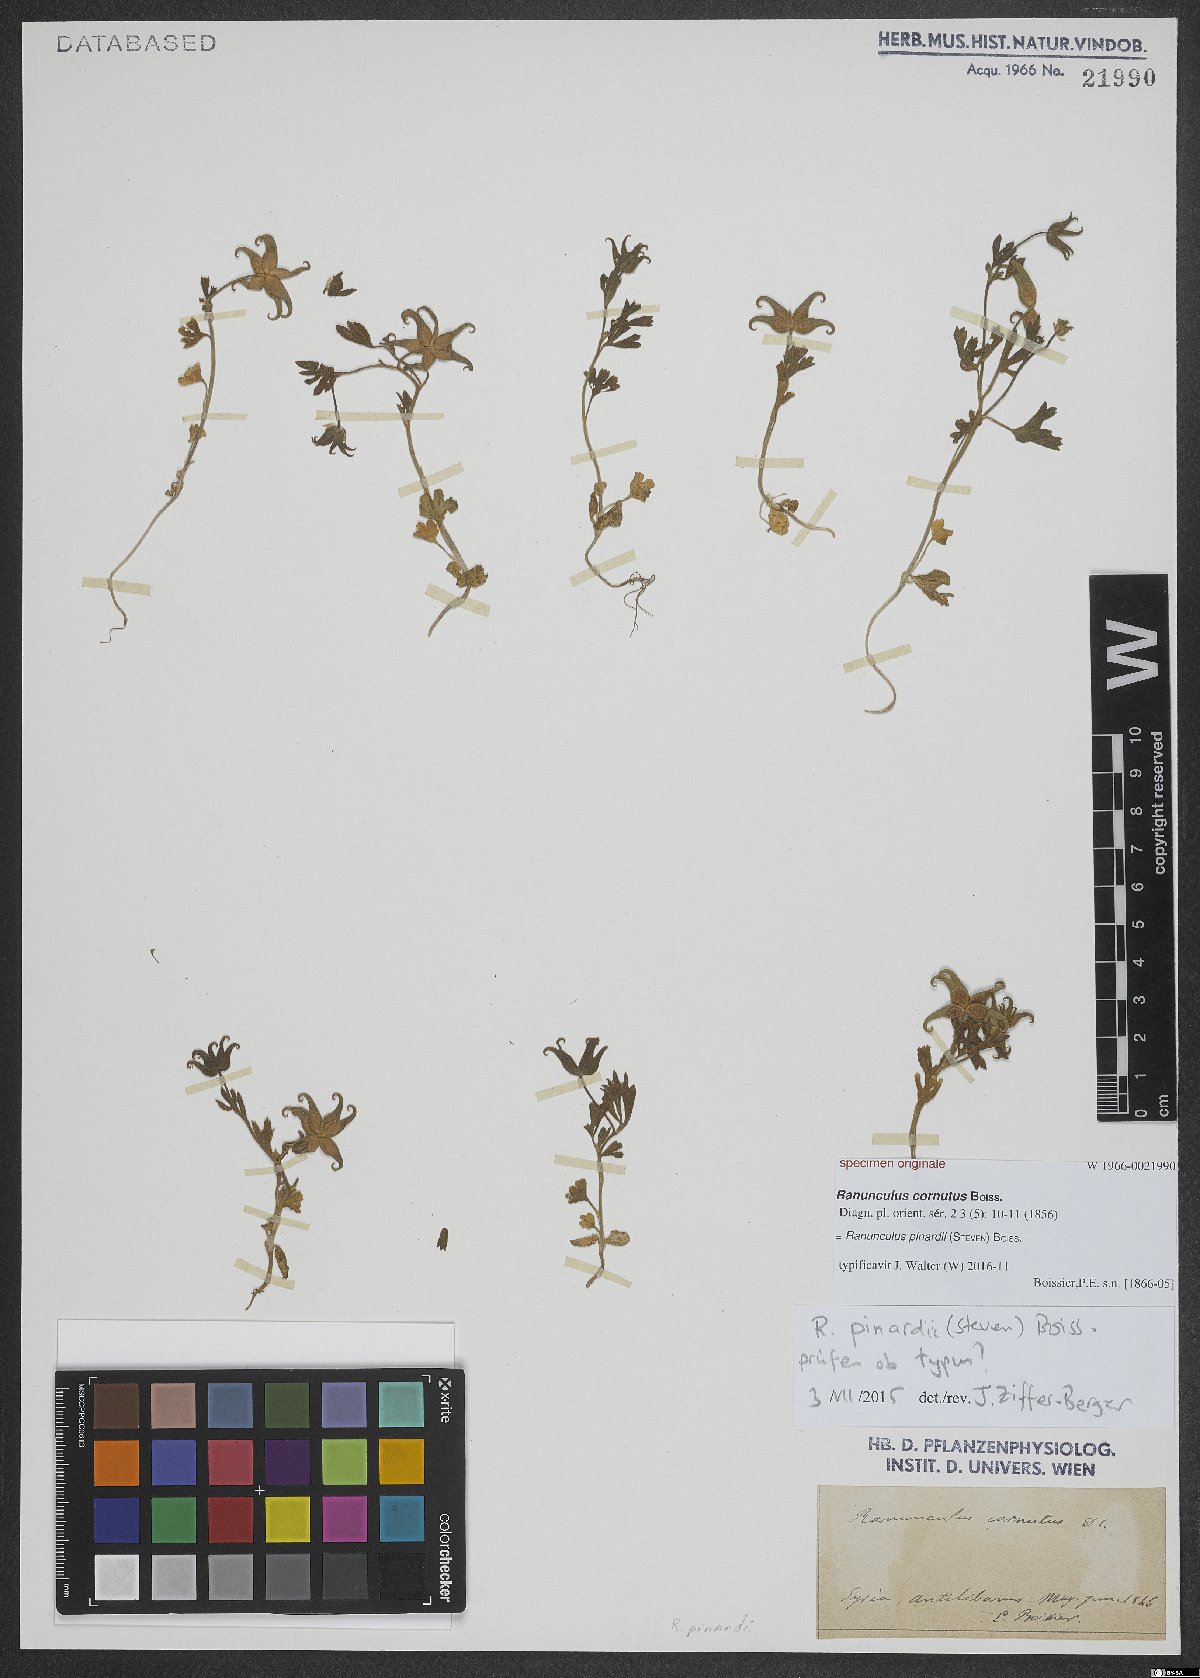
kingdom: Plantae
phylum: Tracheophyta
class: Magnoliopsida
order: Ranunculales
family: Ranunculaceae
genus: Ranunculus
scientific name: Ranunculus pinardii
